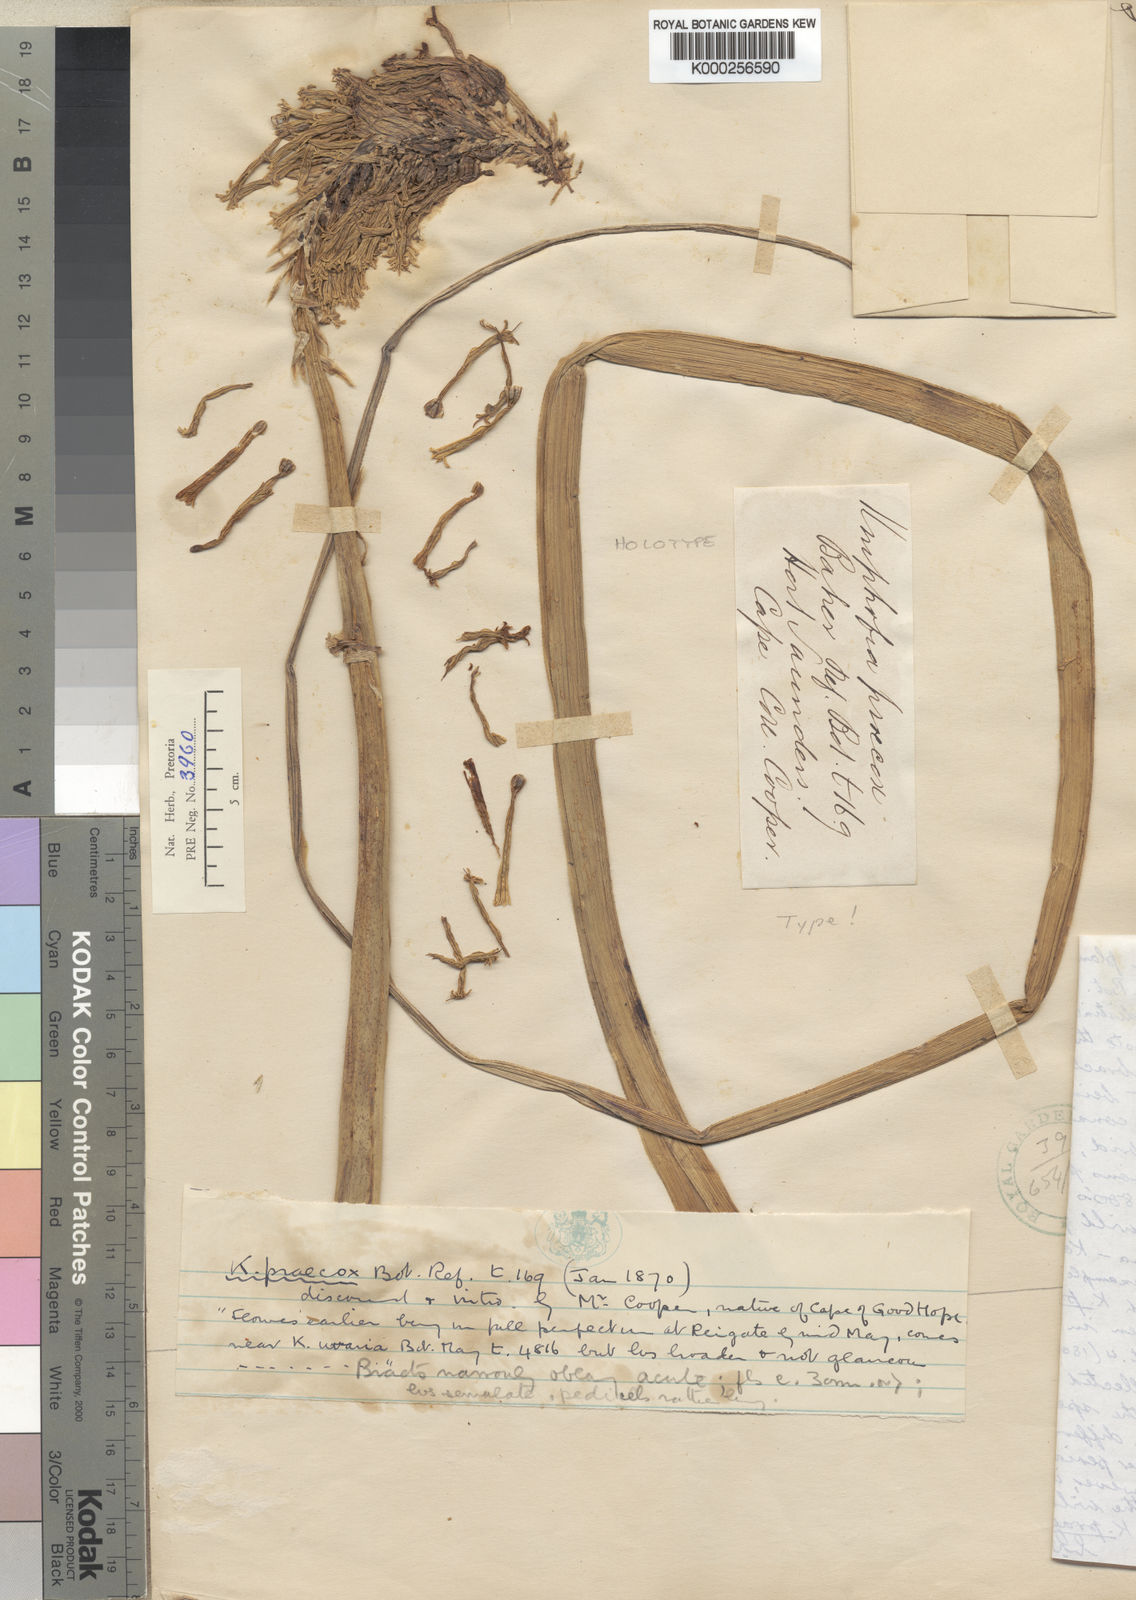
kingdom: Plantae
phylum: Tracheophyta
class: Liliopsida
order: Asparagales
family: Asphodelaceae
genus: Kniphofia
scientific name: Kniphofia praecox
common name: Greater red-hot-poker
